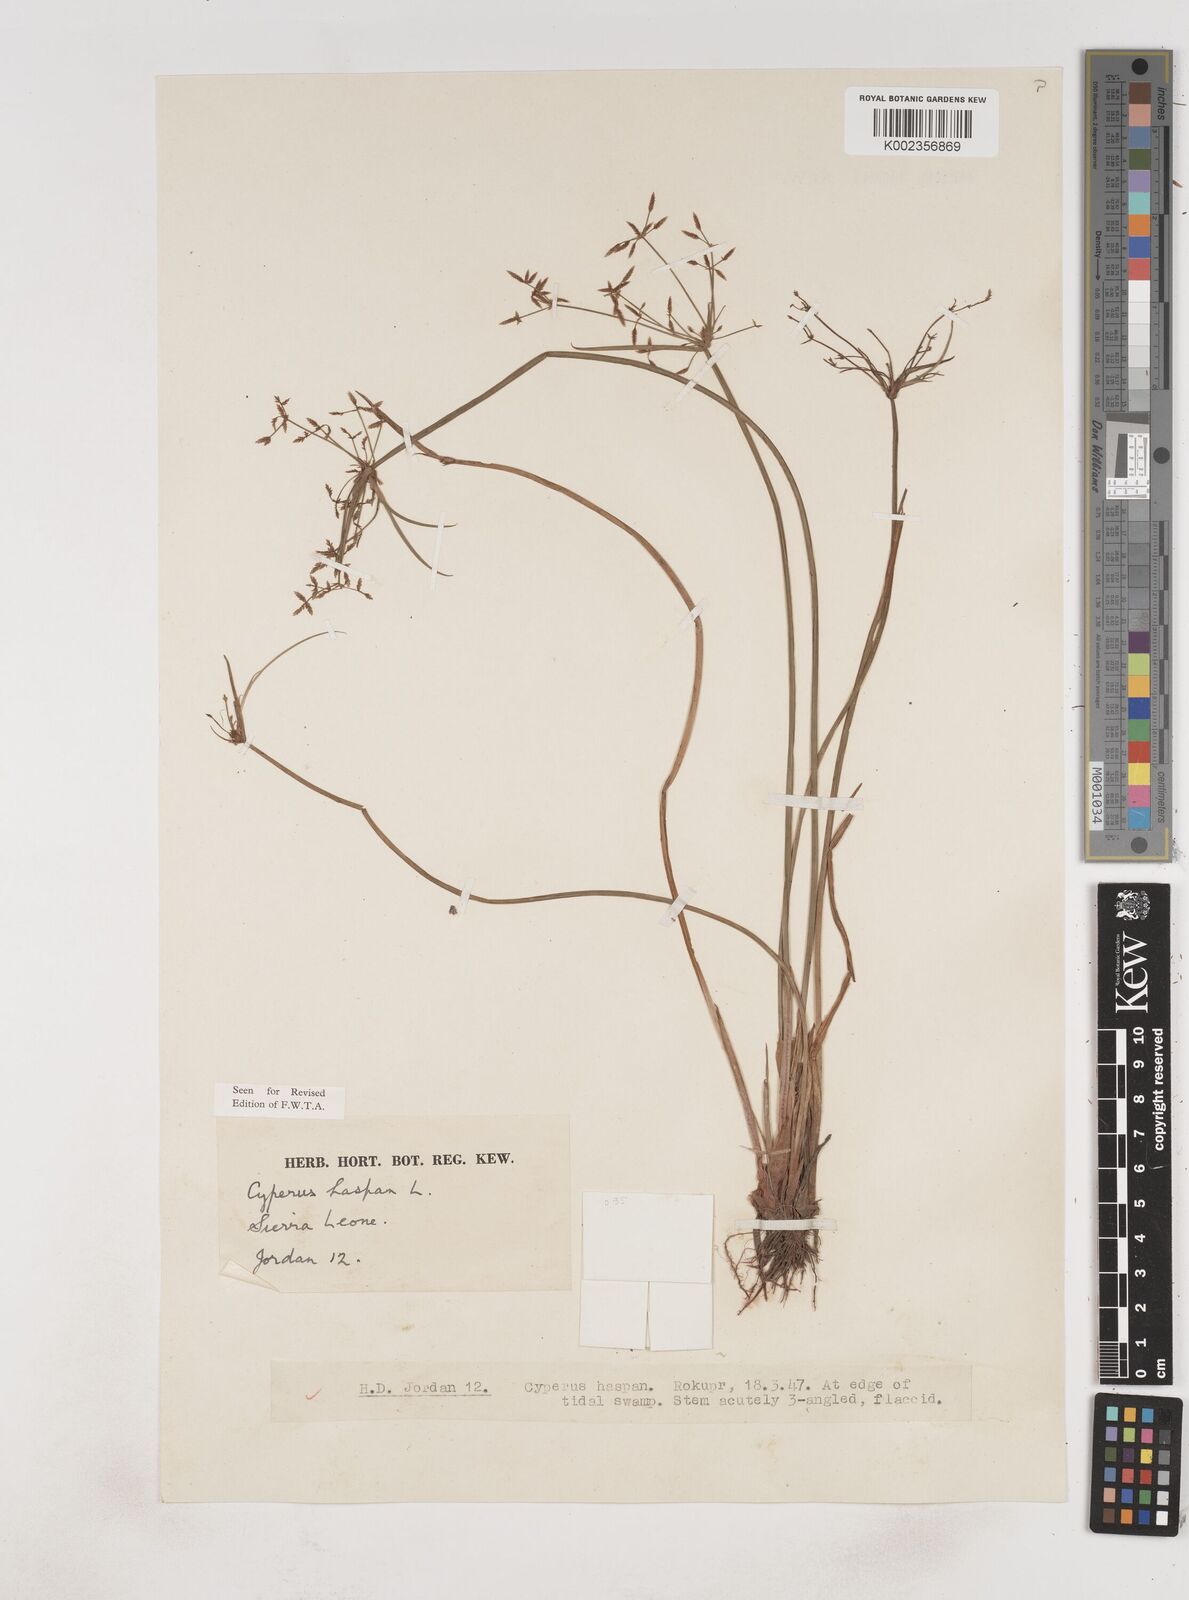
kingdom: Plantae
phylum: Tracheophyta
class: Liliopsida
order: Poales
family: Cyperaceae
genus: Cyperus
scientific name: Cyperus haspan
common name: Haspan flatsedge
